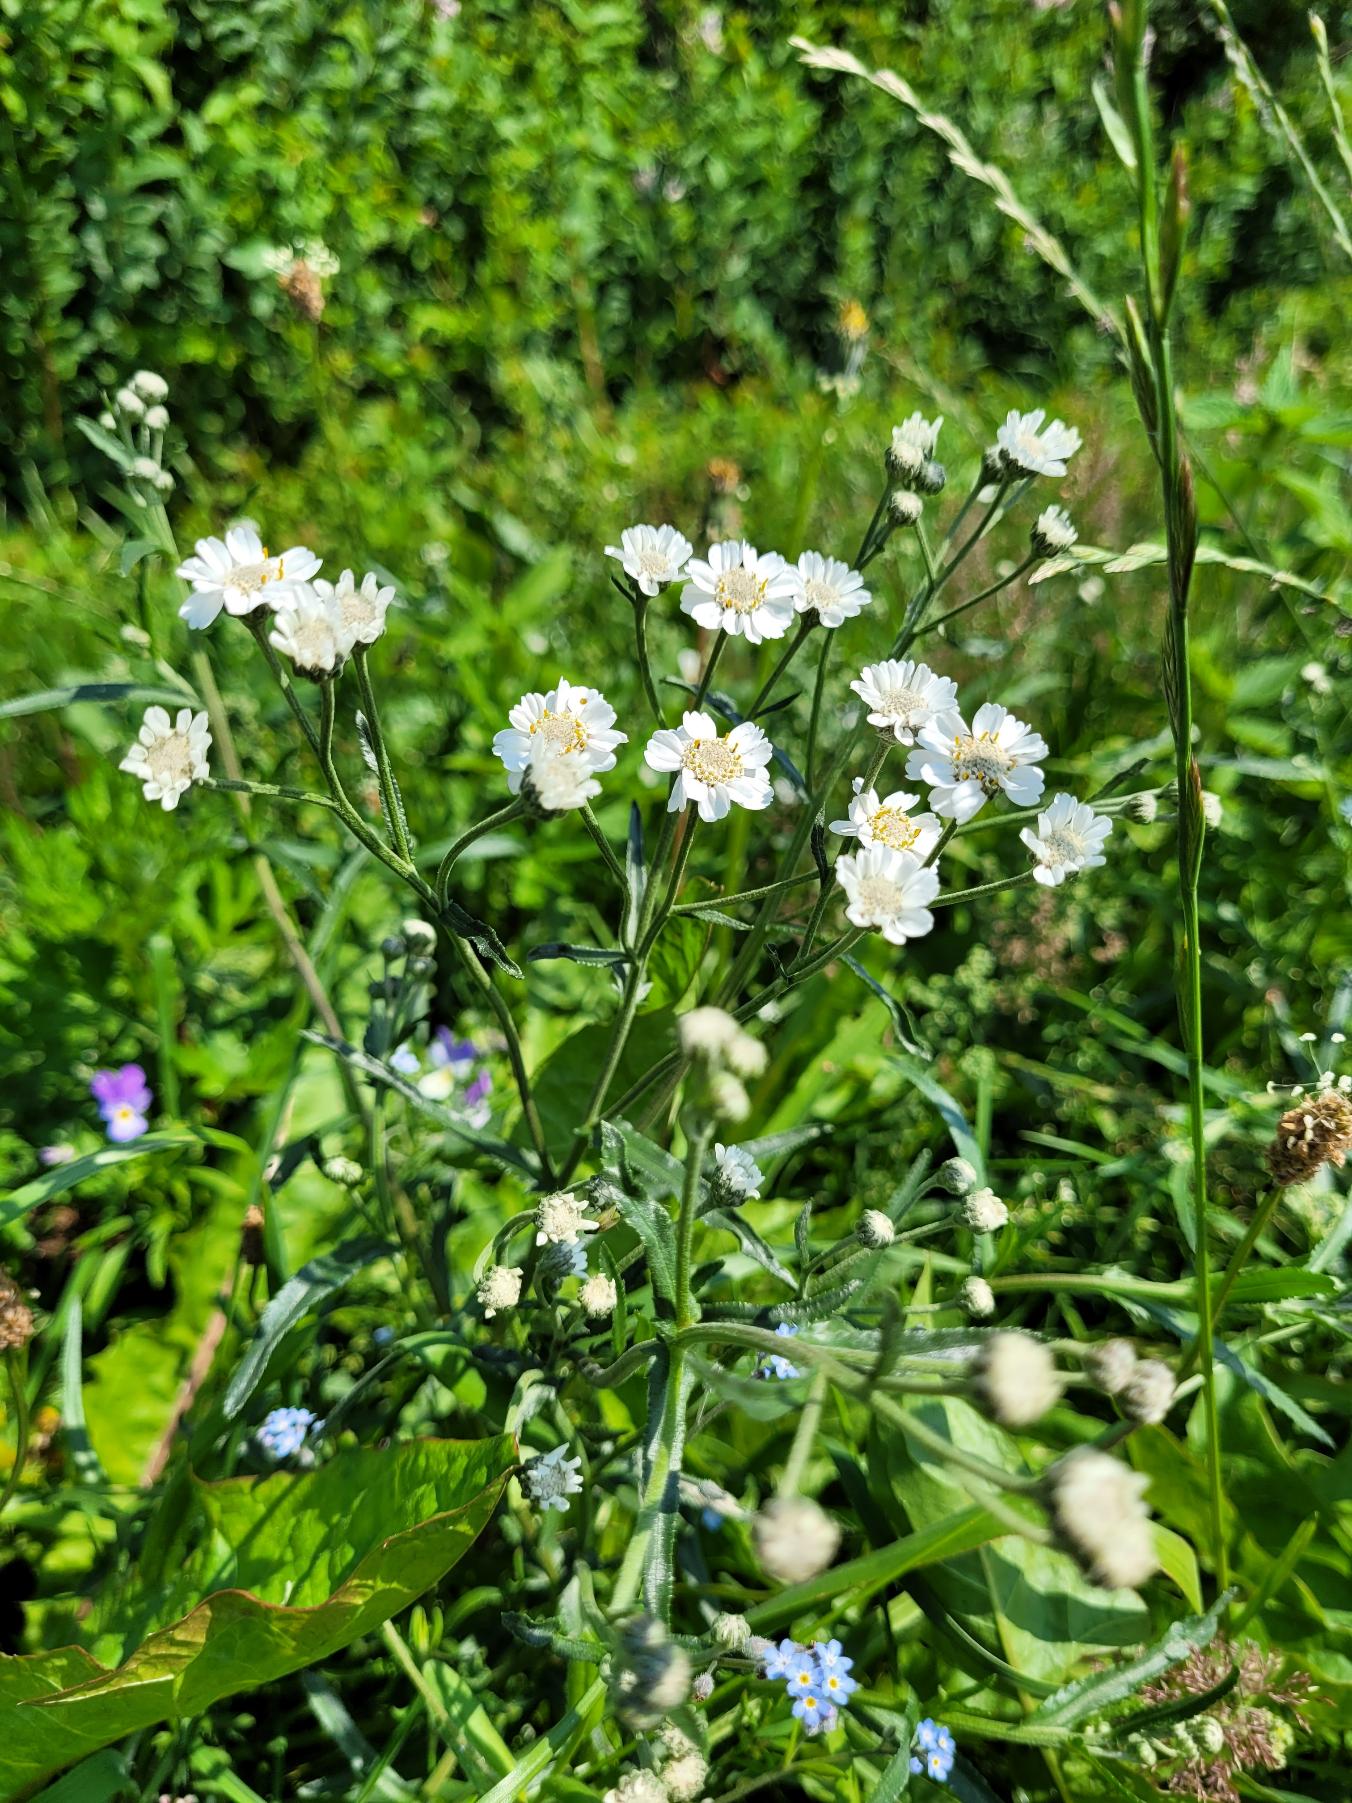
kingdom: Plantae
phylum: Tracheophyta
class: Magnoliopsida
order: Asterales
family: Asteraceae
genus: Achillea
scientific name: Achillea ptarmica
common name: Nyse-røllike
